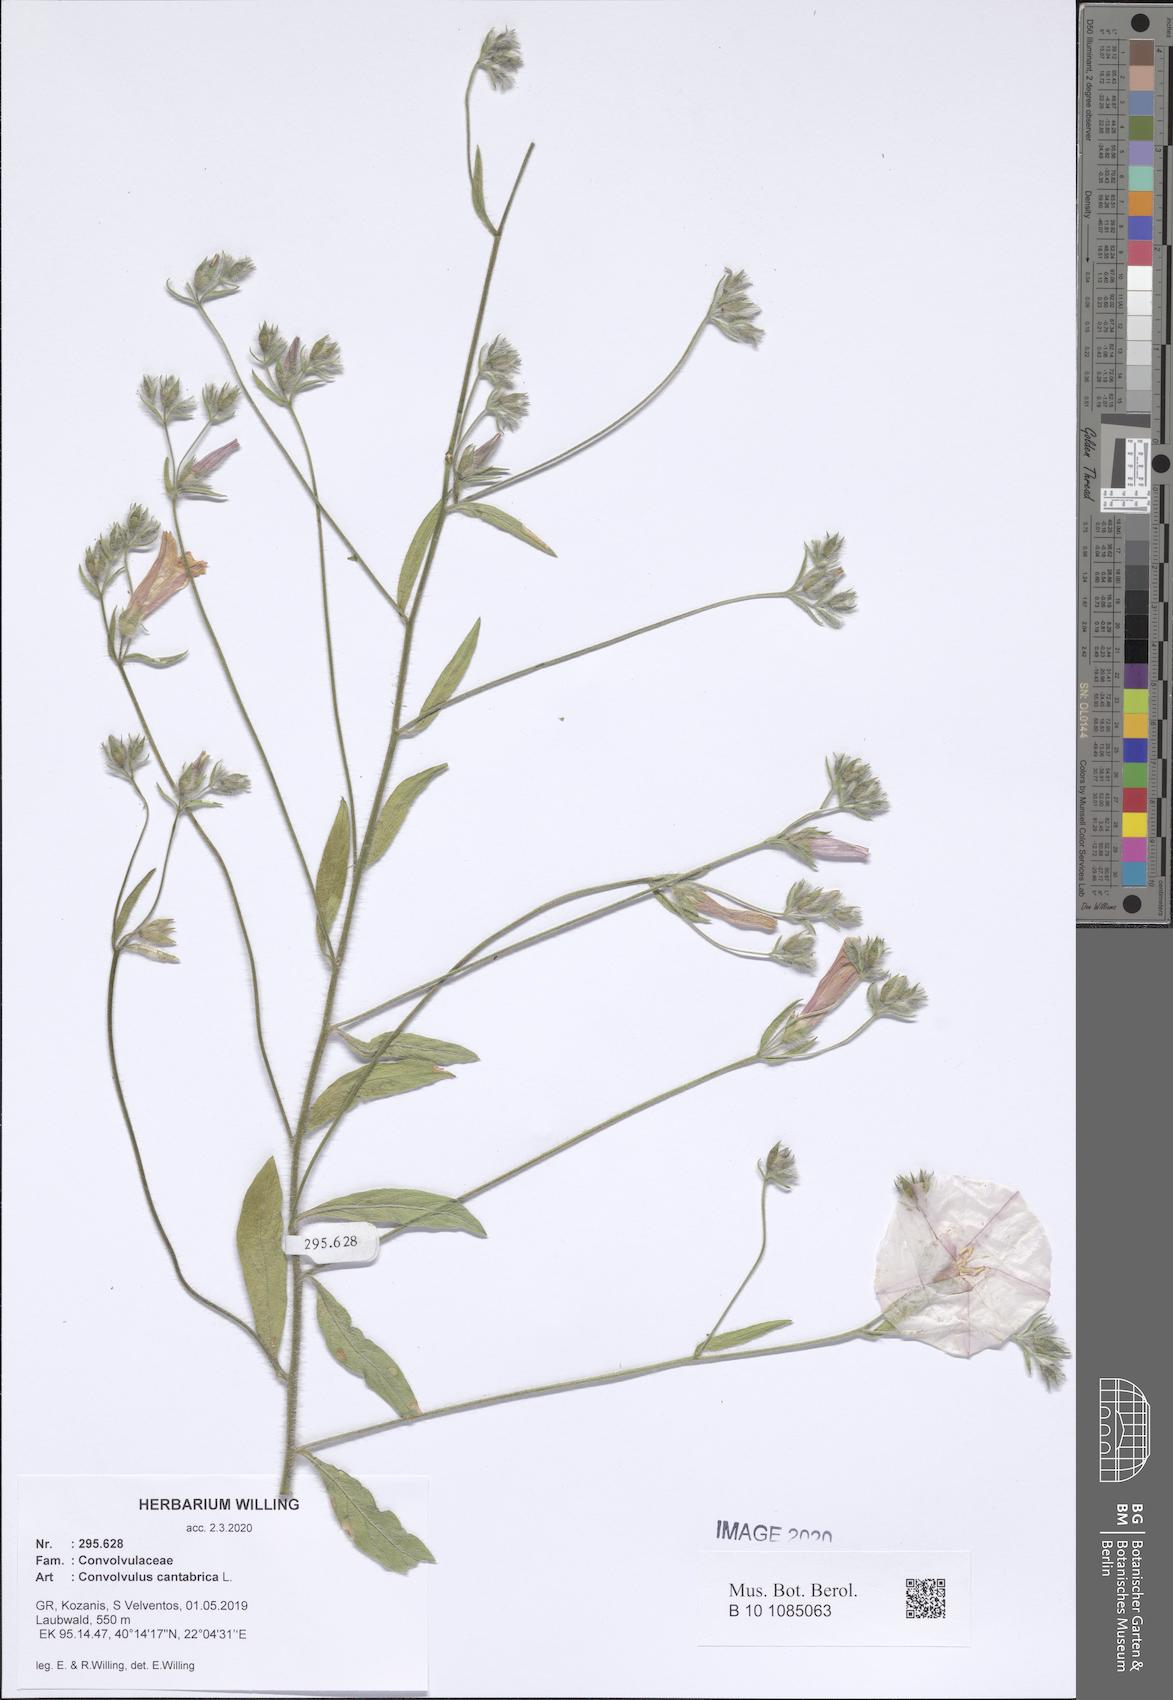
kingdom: Plantae
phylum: Tracheophyta
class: Magnoliopsida
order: Solanales
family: Convolvulaceae
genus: Convolvulus
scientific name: Convolvulus cantabrica
